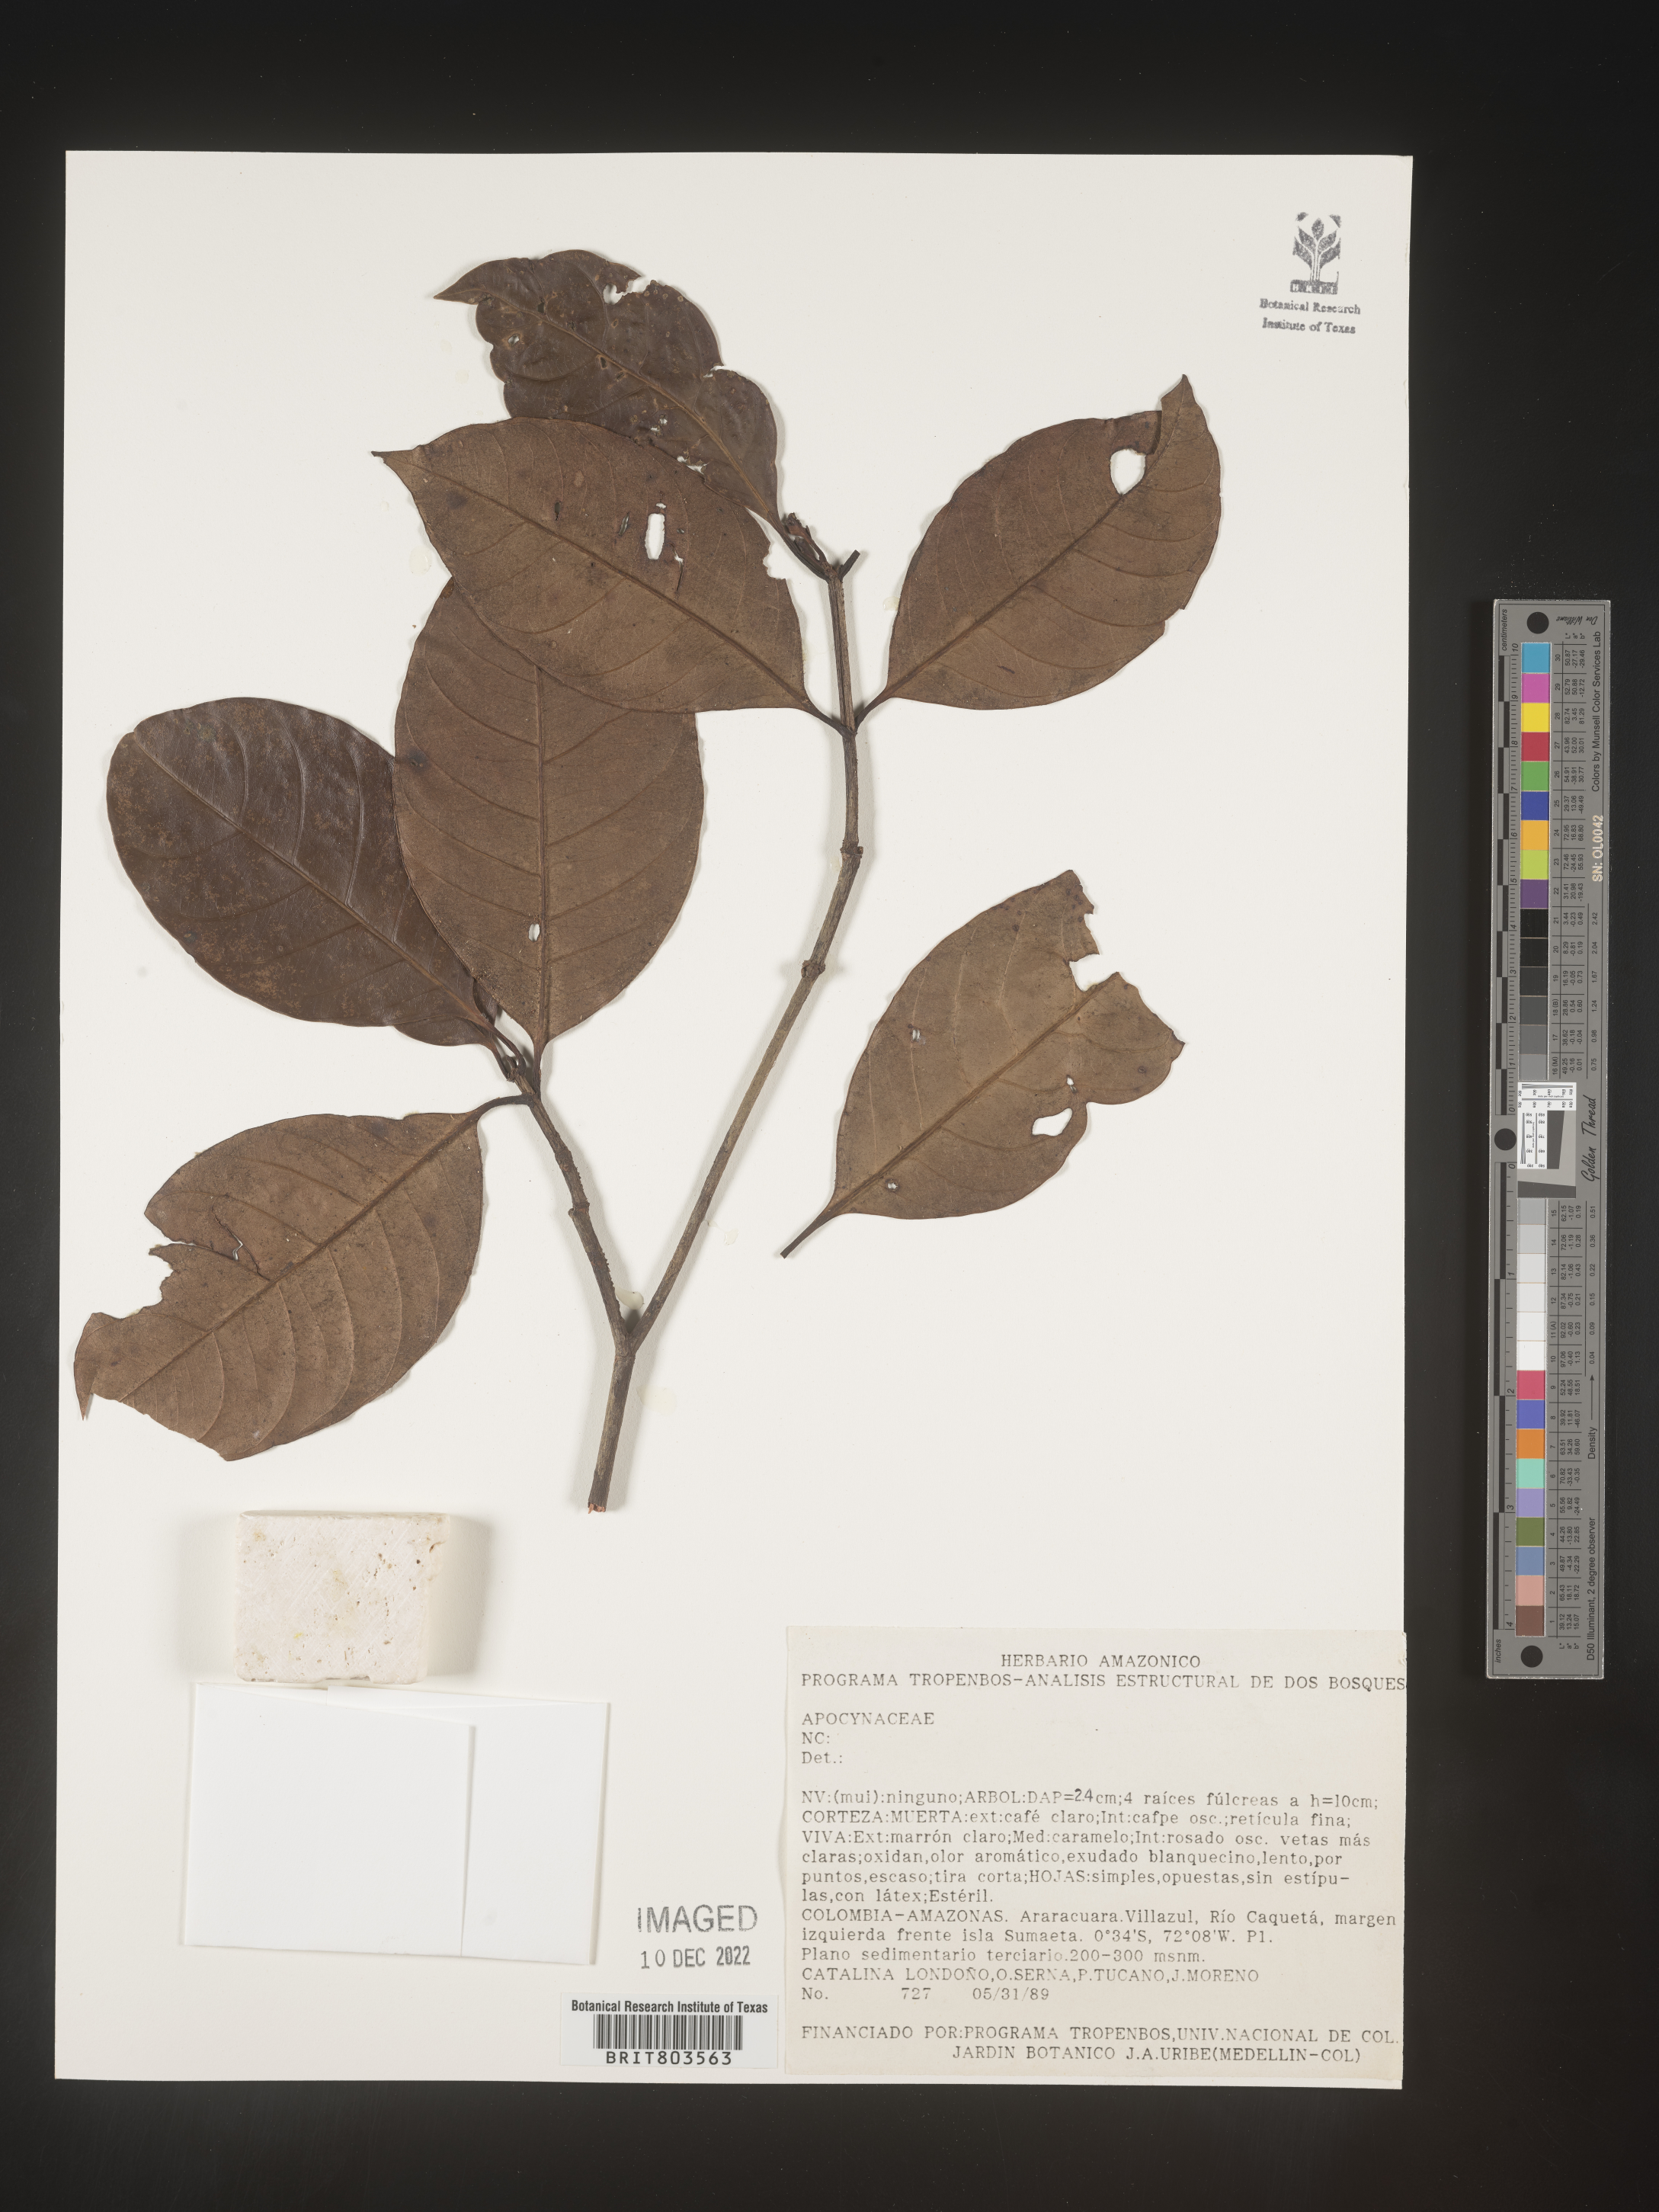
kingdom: Plantae
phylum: Tracheophyta
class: Magnoliopsida
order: Malpighiales
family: Clusiaceae
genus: Tovomita
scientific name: Tovomita
